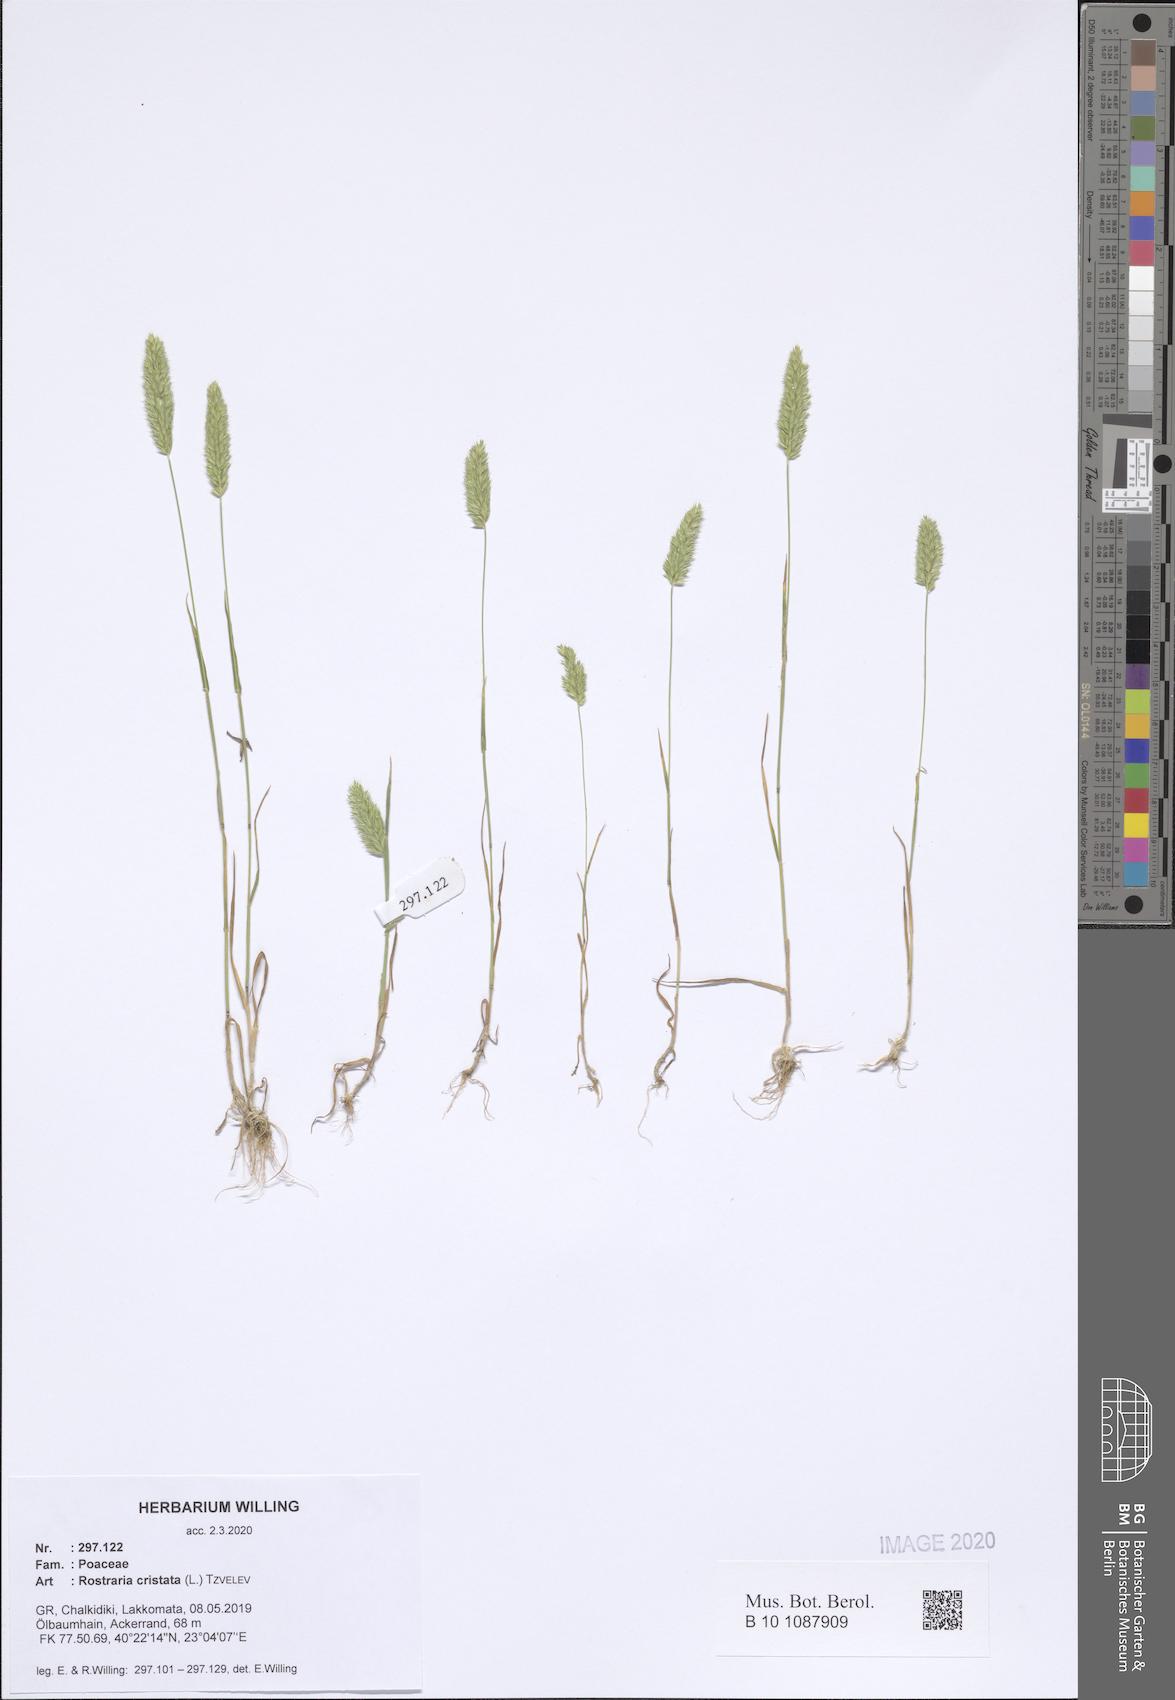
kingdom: Plantae
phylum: Tracheophyta
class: Liliopsida
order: Poales
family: Poaceae
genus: Rostraria
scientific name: Rostraria cristata
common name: Mediterranean hair-grass
